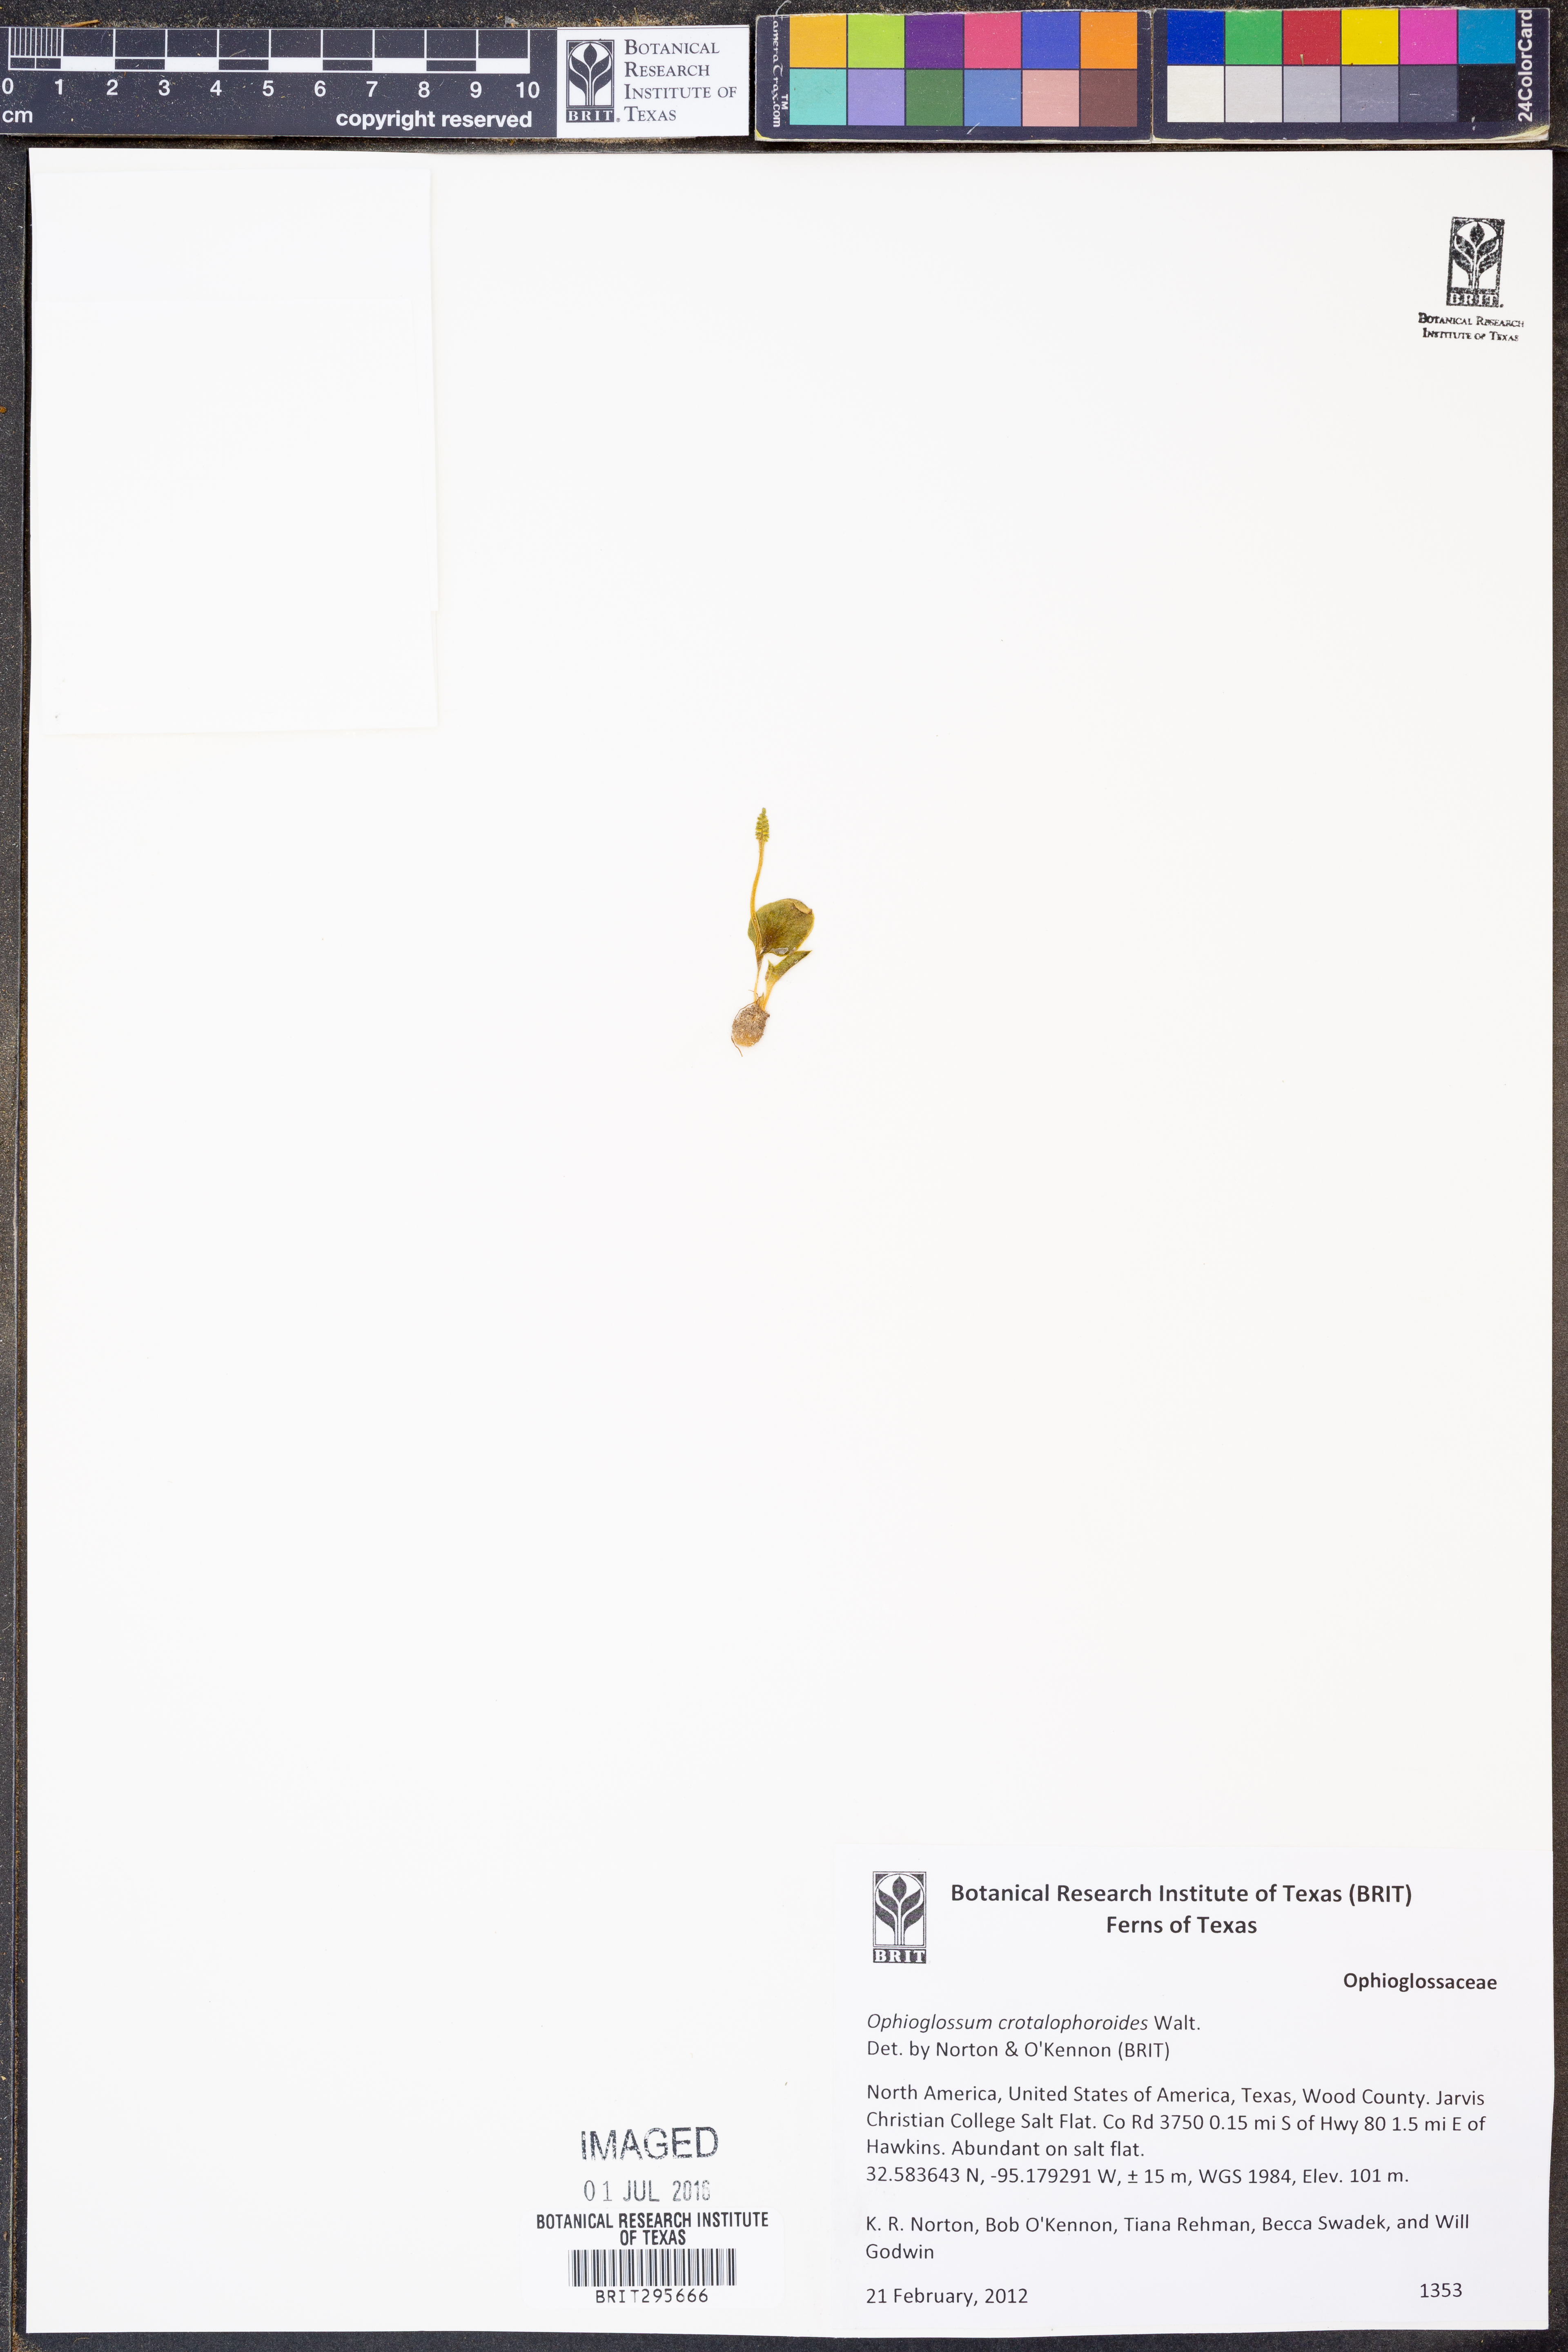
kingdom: Plantae
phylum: Tracheophyta
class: Polypodiopsida
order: Ophioglossales
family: Ophioglossaceae
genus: Ophioglossum
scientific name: Ophioglossum crotalophoroides
